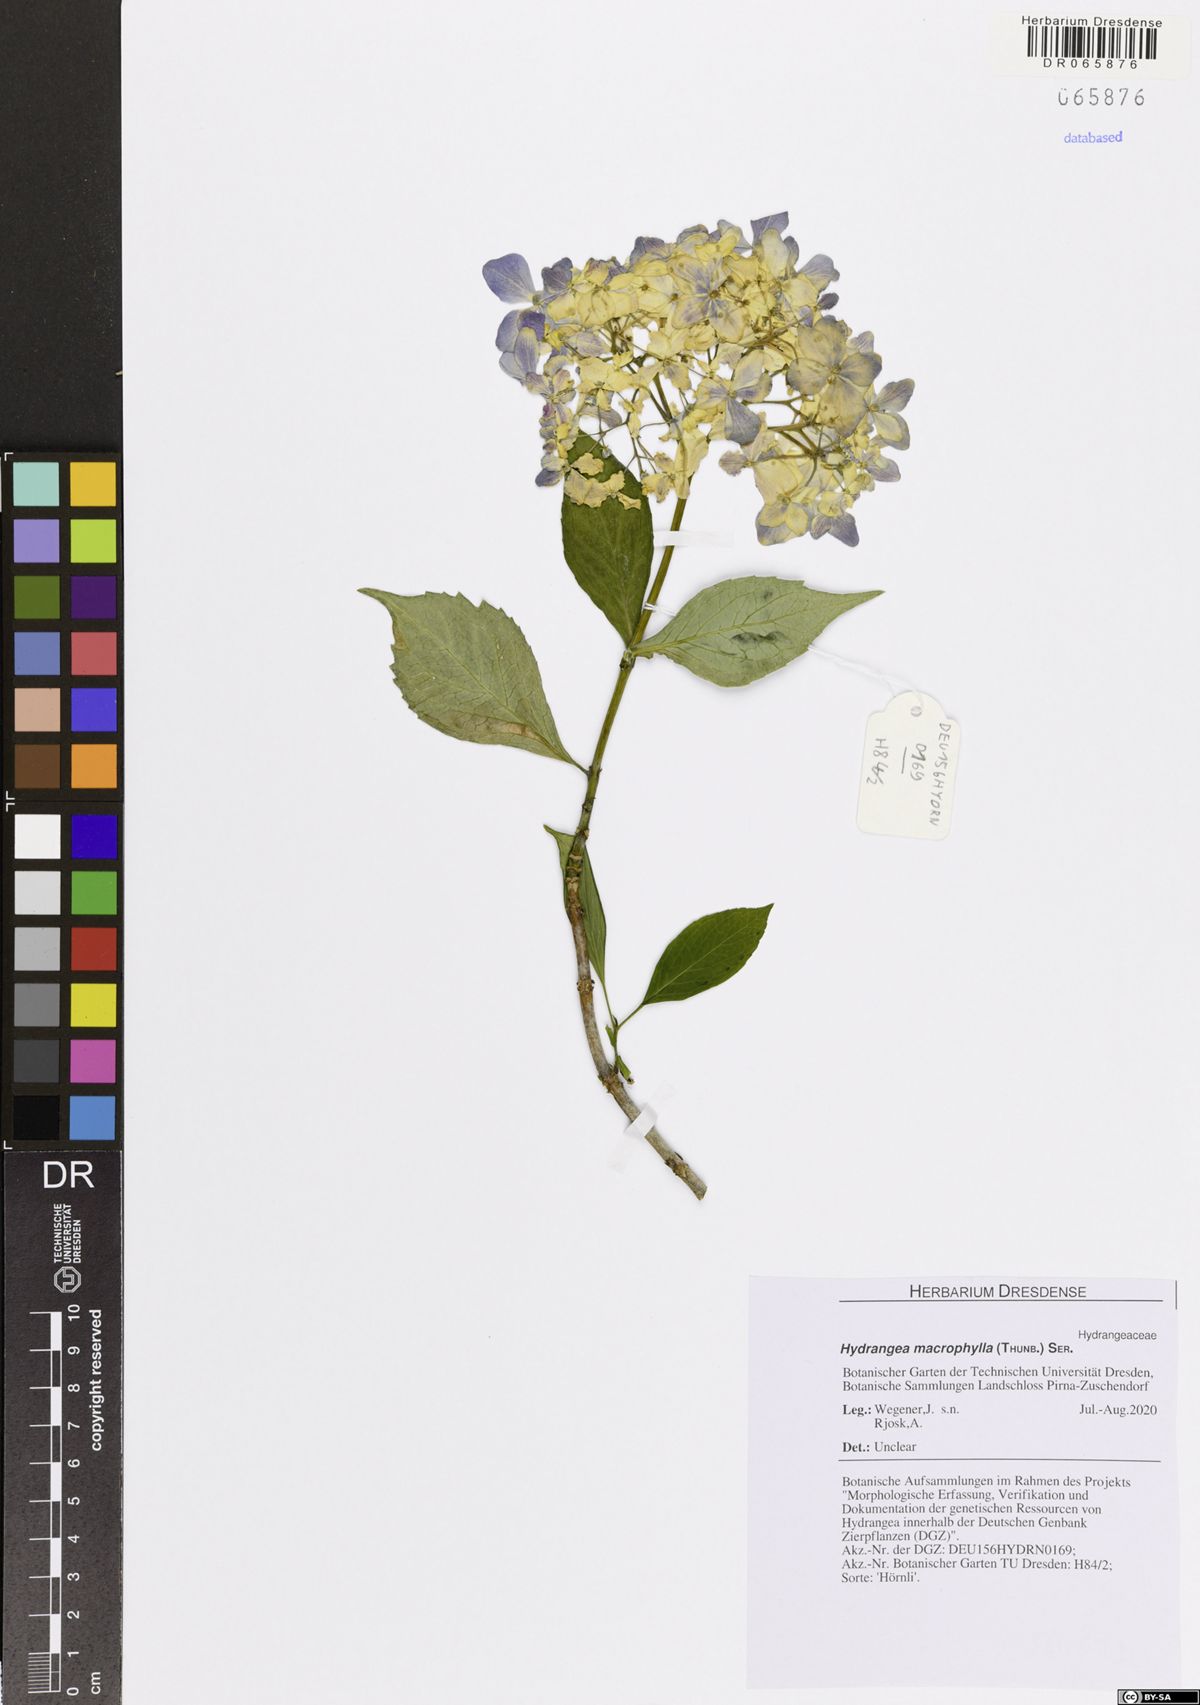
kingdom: Plantae
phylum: Tracheophyta
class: Magnoliopsida
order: Cornales
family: Hydrangeaceae
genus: Hydrangea
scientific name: Hydrangea macrophylla
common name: Hydrangea
